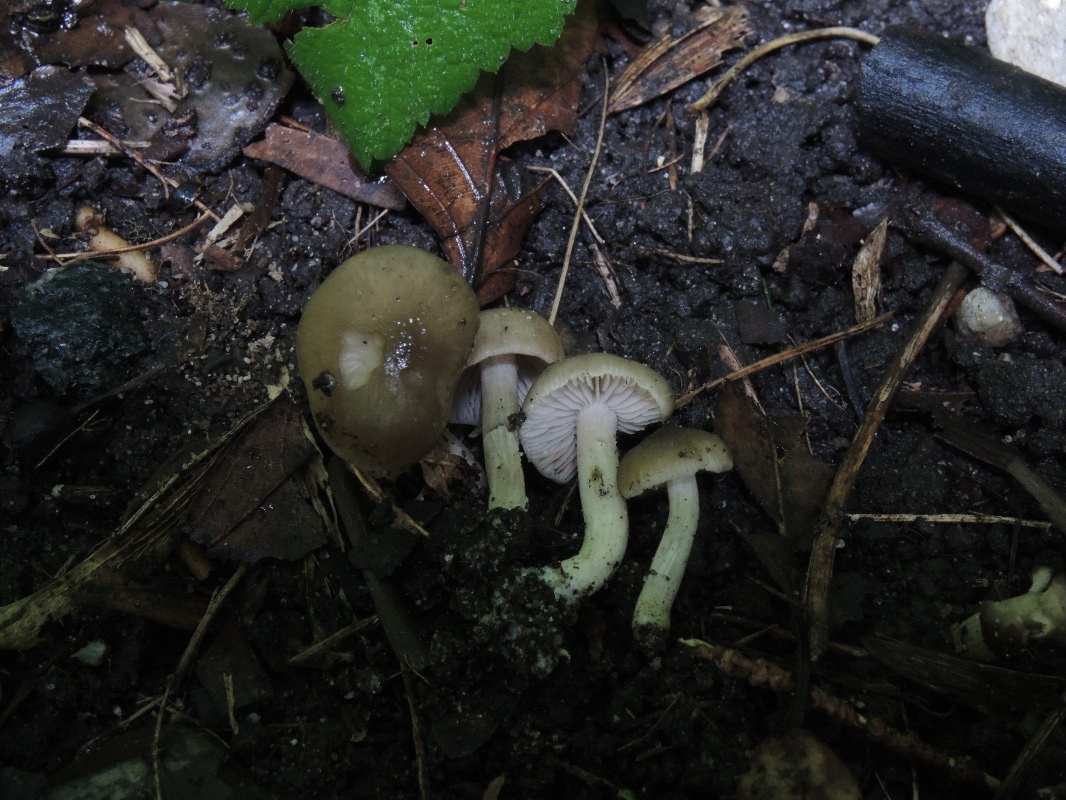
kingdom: Fungi
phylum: Basidiomycota
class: Agaricomycetes
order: Agaricales
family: Entolomataceae
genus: Entoloma
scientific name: Entoloma sordidulum
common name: smudsig rødblad
